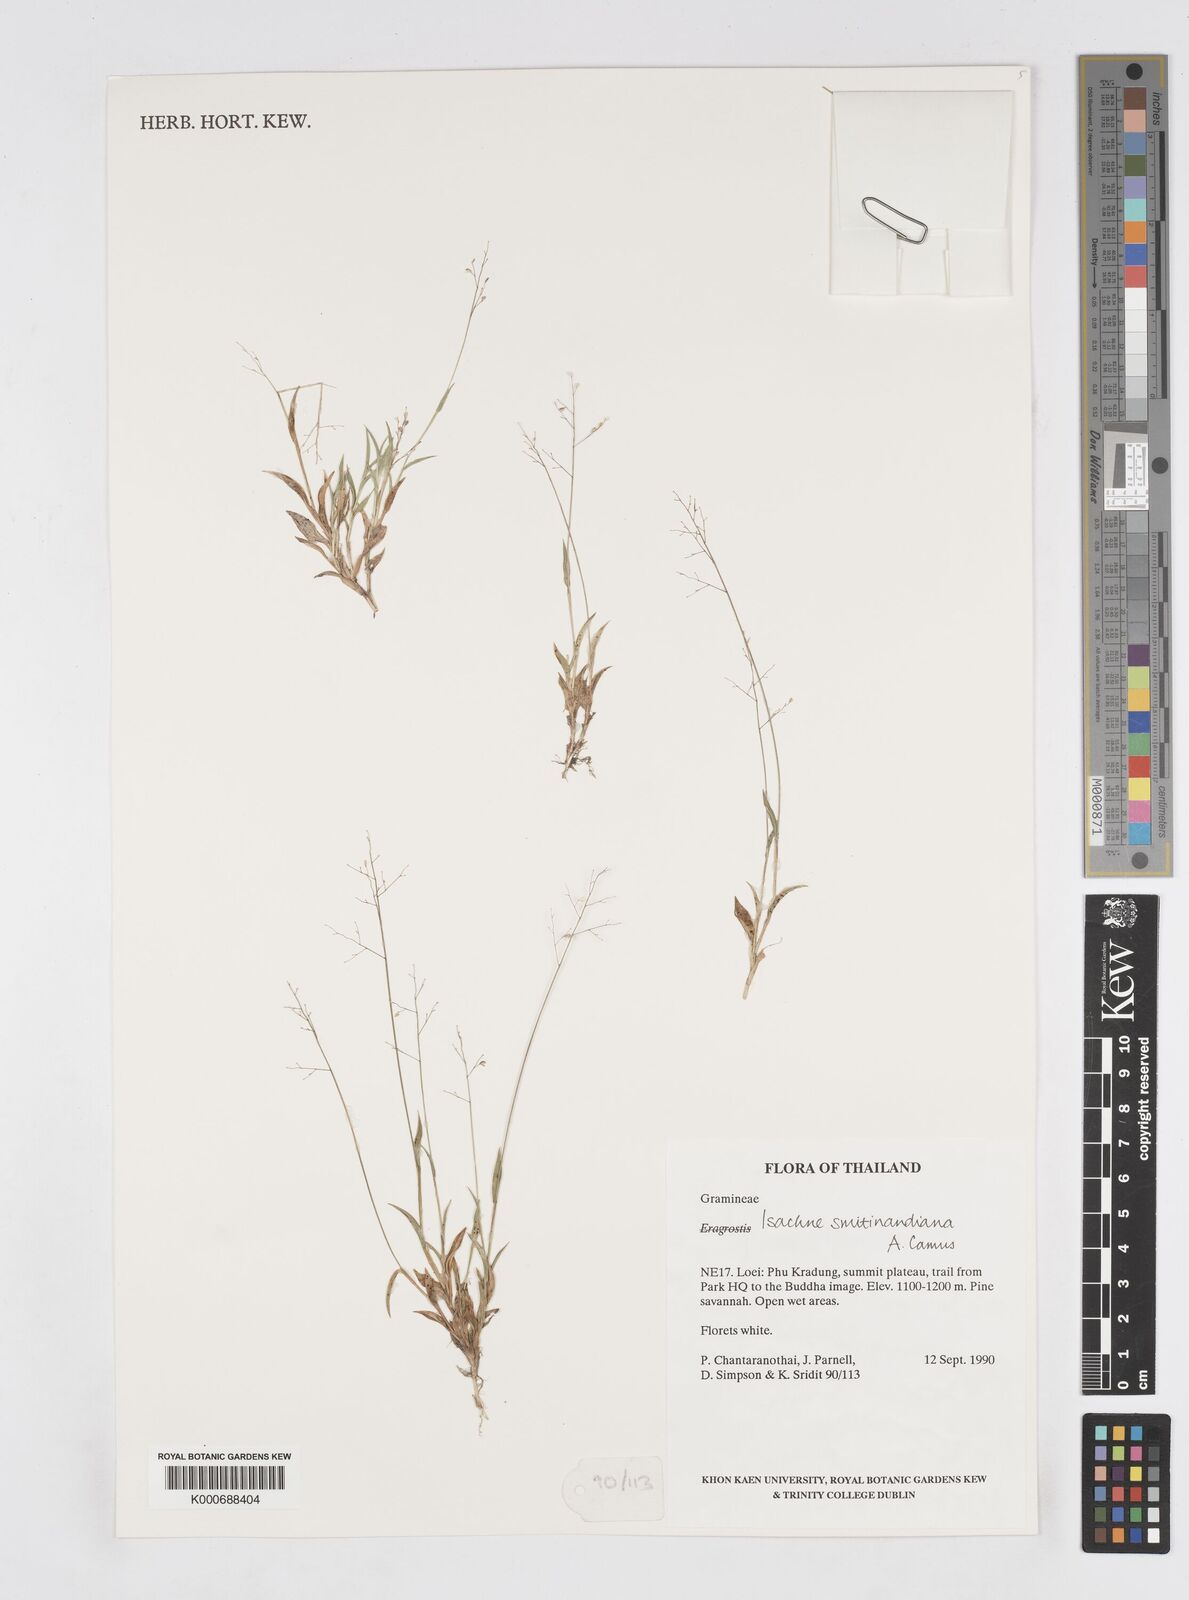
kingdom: Plantae
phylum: Tracheophyta
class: Liliopsida
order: Poales
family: Poaceae
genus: Isachne
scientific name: Isachne smitinandiana
